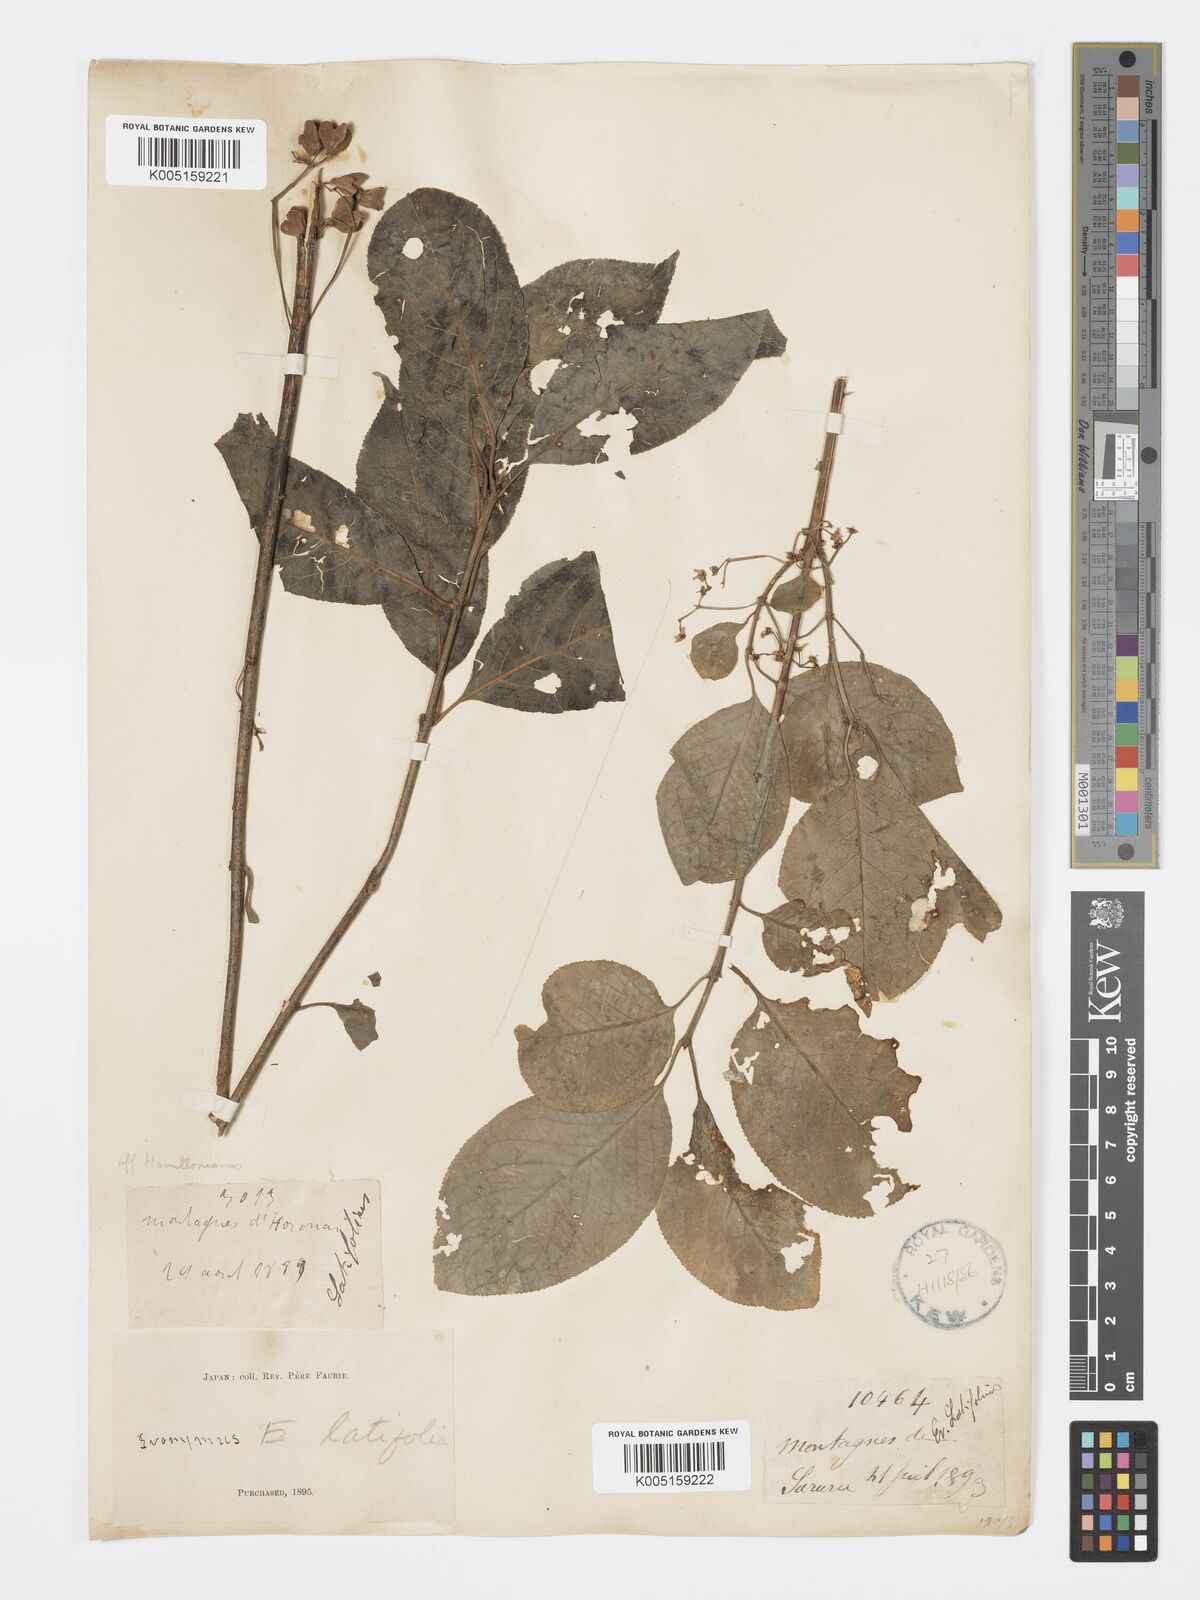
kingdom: Plantae
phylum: Tracheophyta
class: Magnoliopsida
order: Celastrales
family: Celastraceae
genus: Euonymus
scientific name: Euonymus hamiltonianus
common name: Hamilton's spindletree
